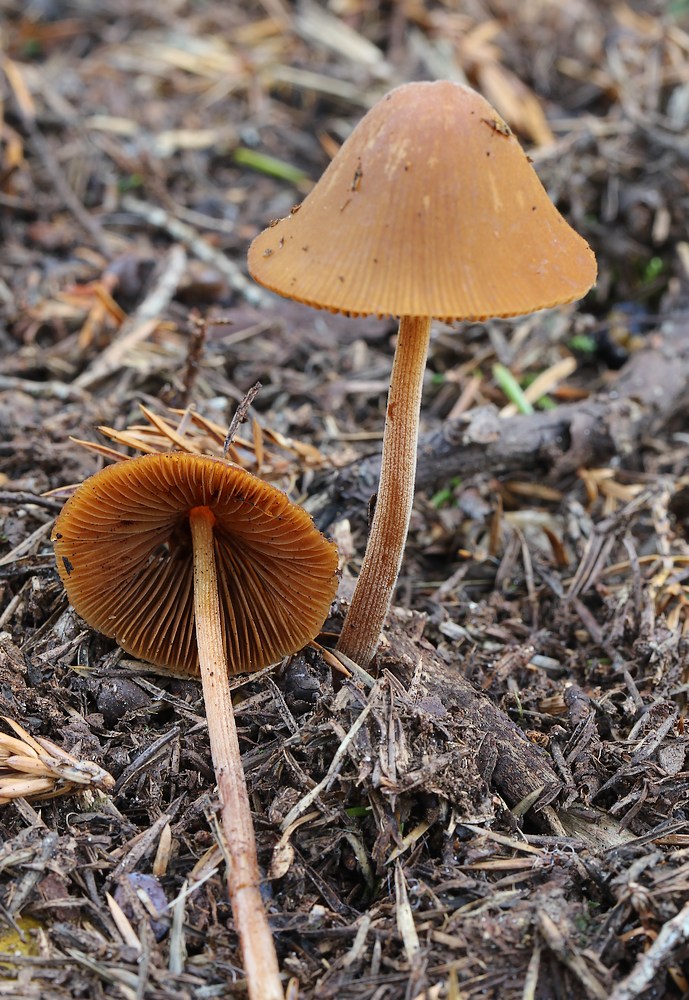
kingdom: Fungi
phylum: Basidiomycota
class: Agaricomycetes
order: Agaricales
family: Bolbitiaceae
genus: Conocybe
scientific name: Conocybe subpubescens
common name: krat-keglehat
